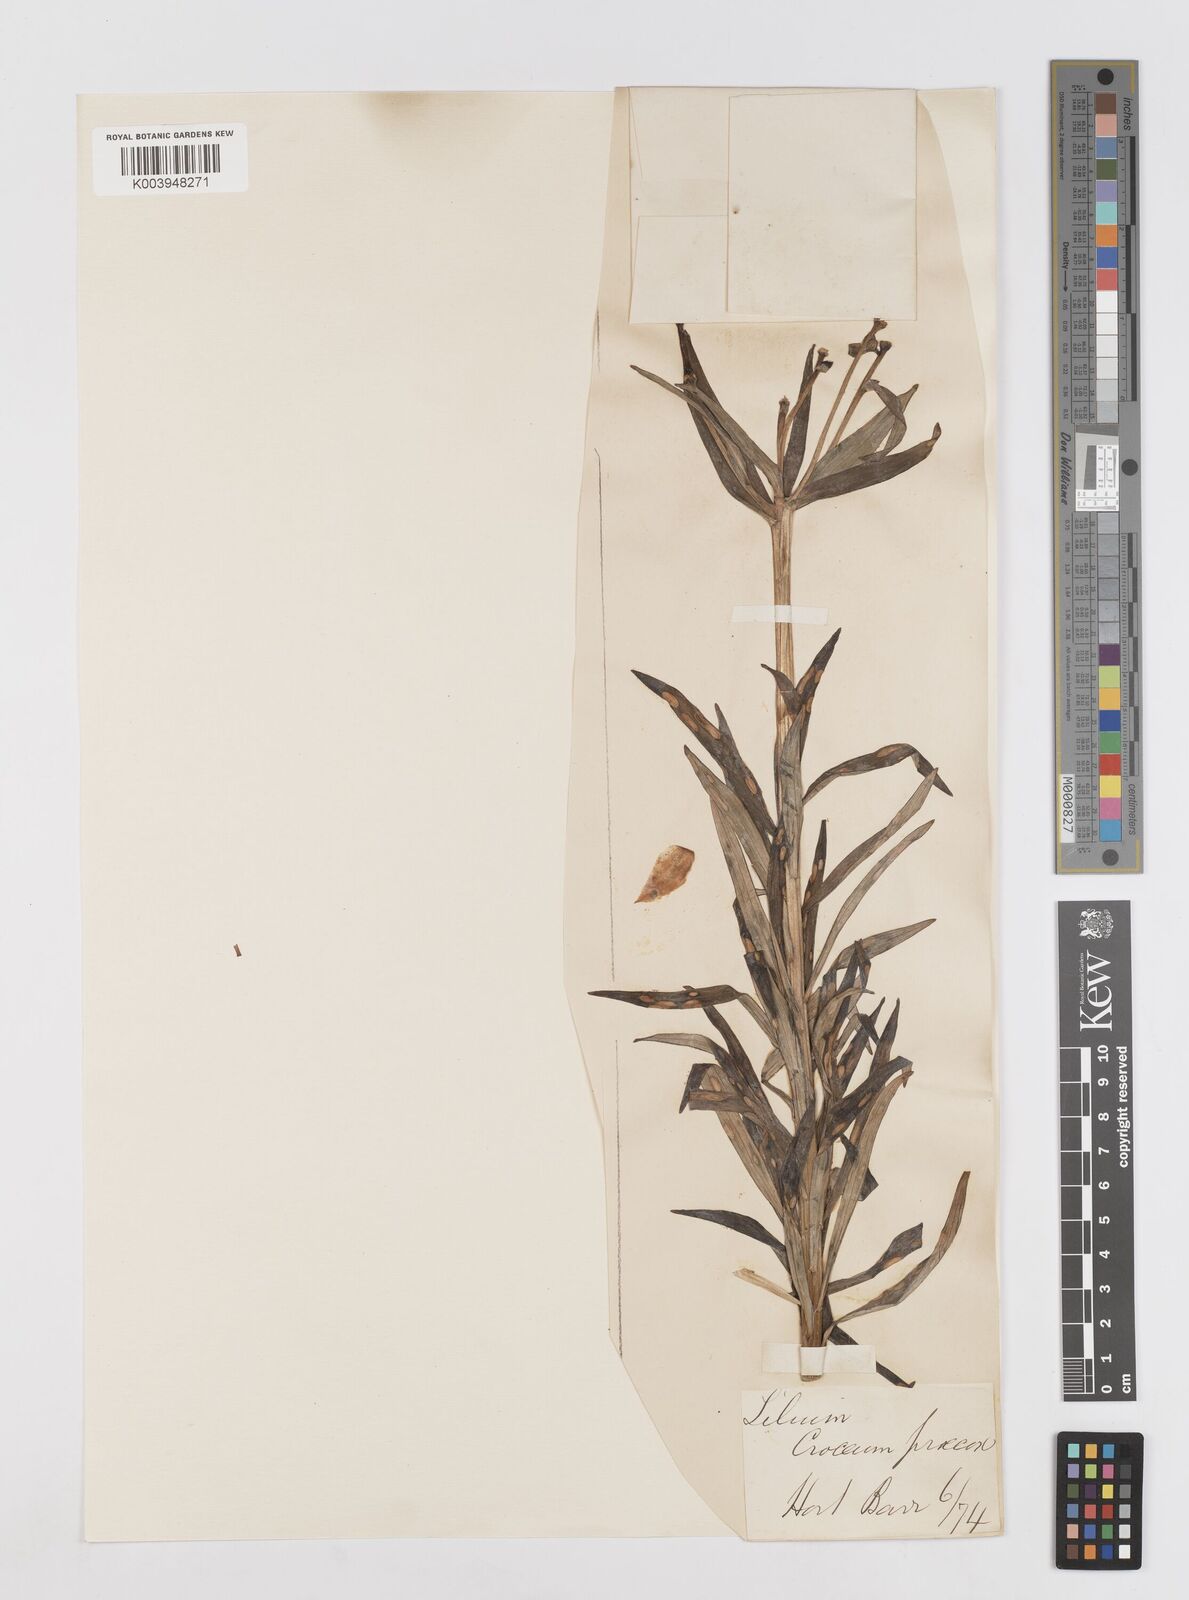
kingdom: Plantae
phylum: Tracheophyta
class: Liliopsida
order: Liliales
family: Liliaceae
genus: Lilium
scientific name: Lilium bulbiferum
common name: Orange lily
